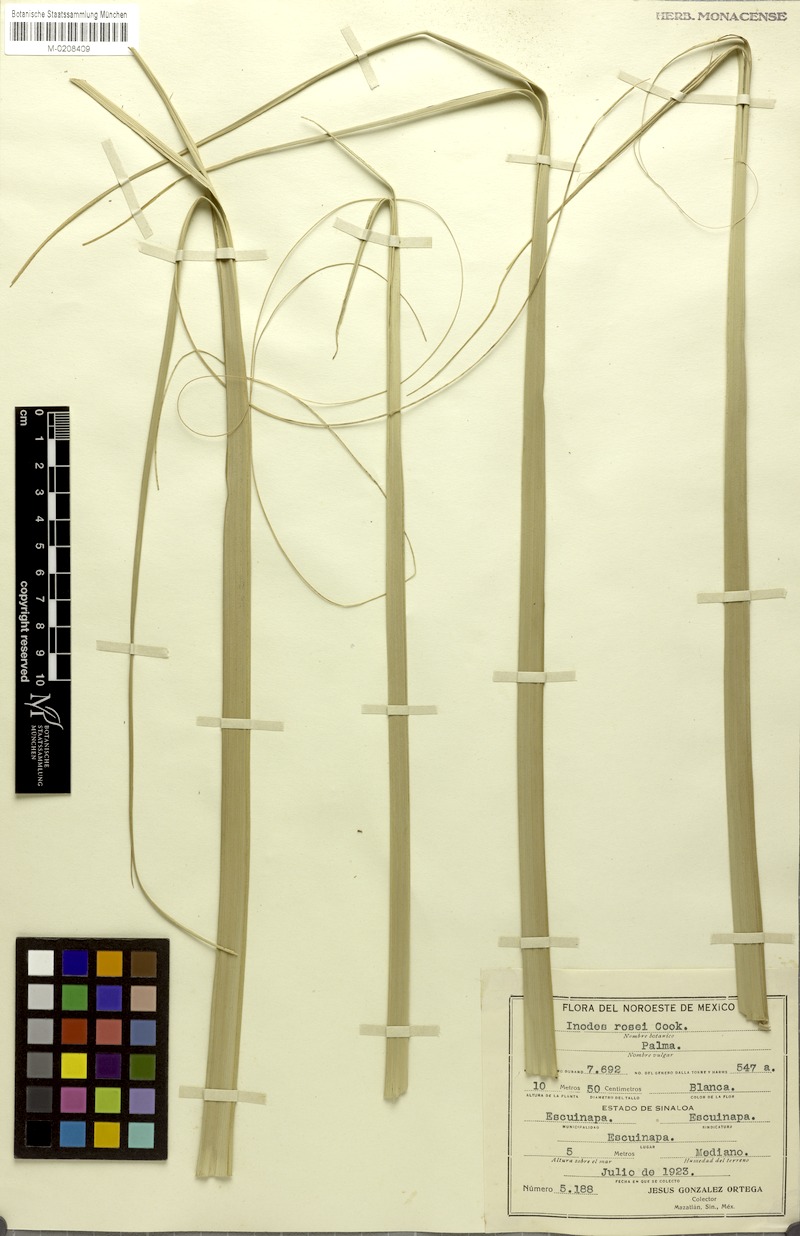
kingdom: Plantae
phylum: Tracheophyta
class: Liliopsida
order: Arecales
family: Arecaceae
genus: Sabal
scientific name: Sabal rosei
